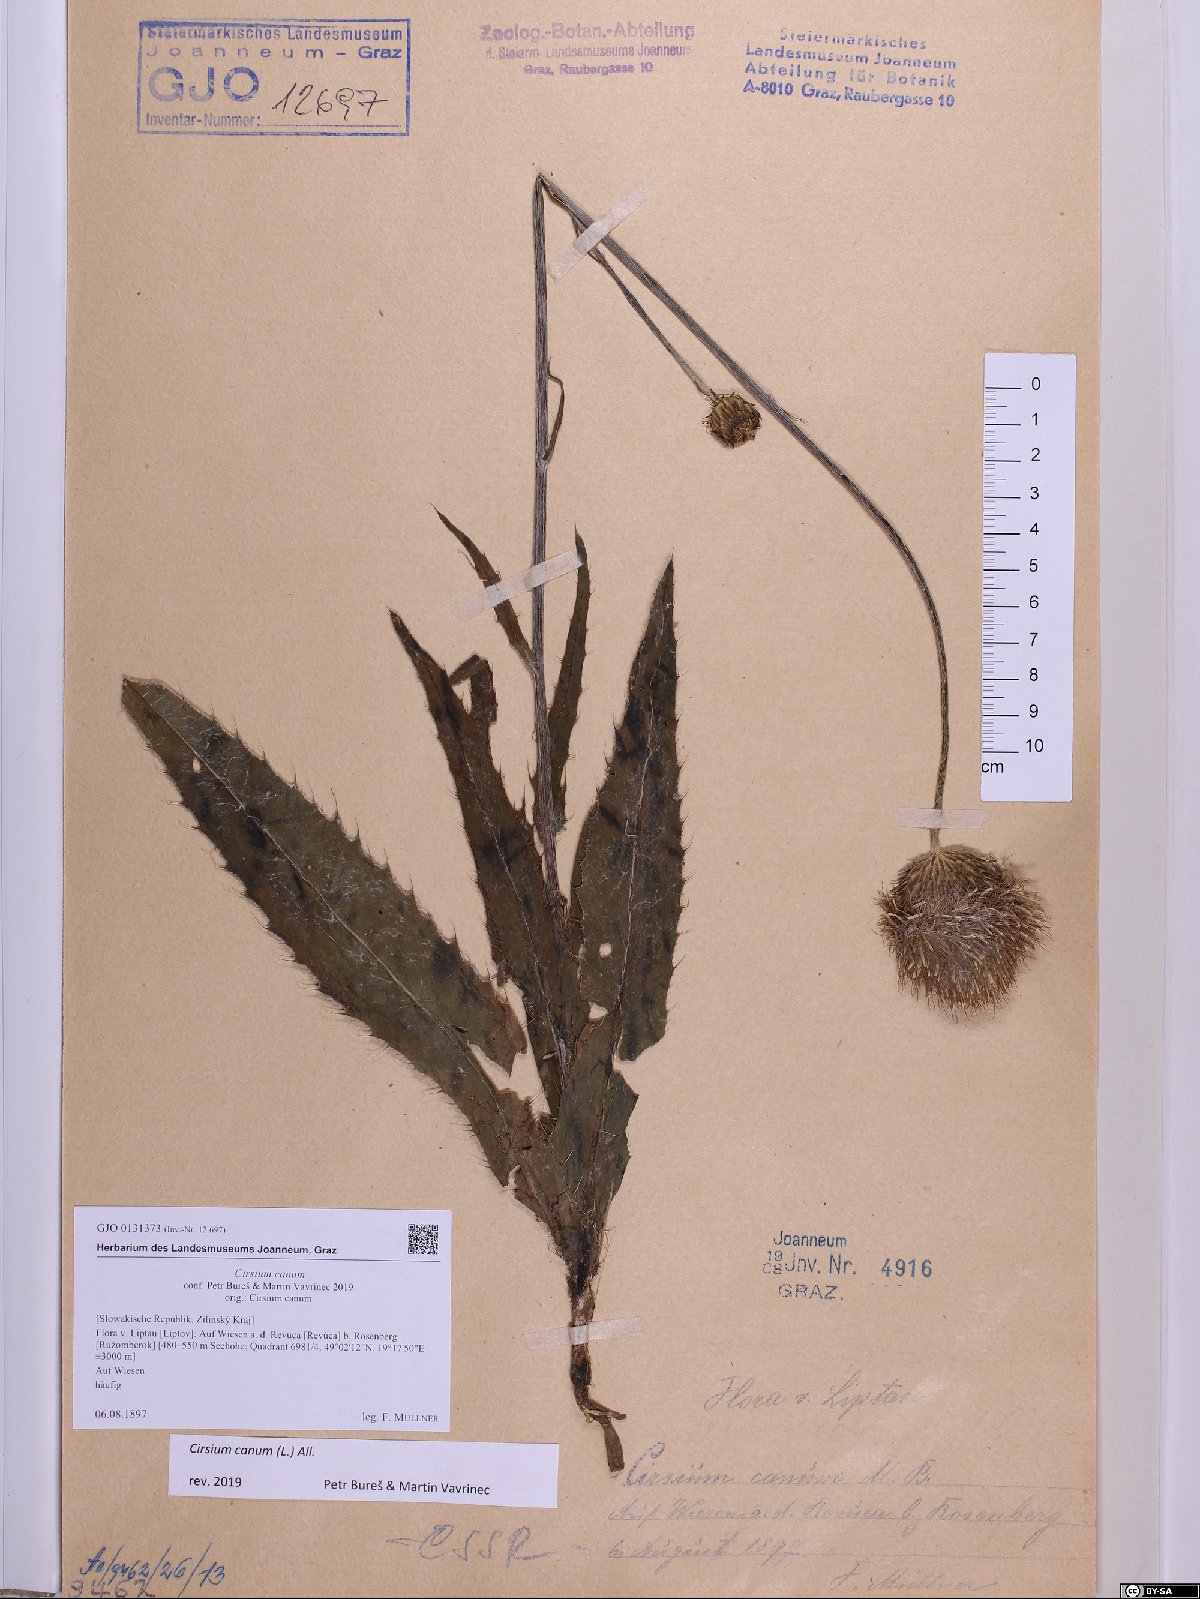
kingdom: Plantae
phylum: Tracheophyta
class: Magnoliopsida
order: Asterales
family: Asteraceae
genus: Cirsium
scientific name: Cirsium canum
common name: Queen anne's thistle
